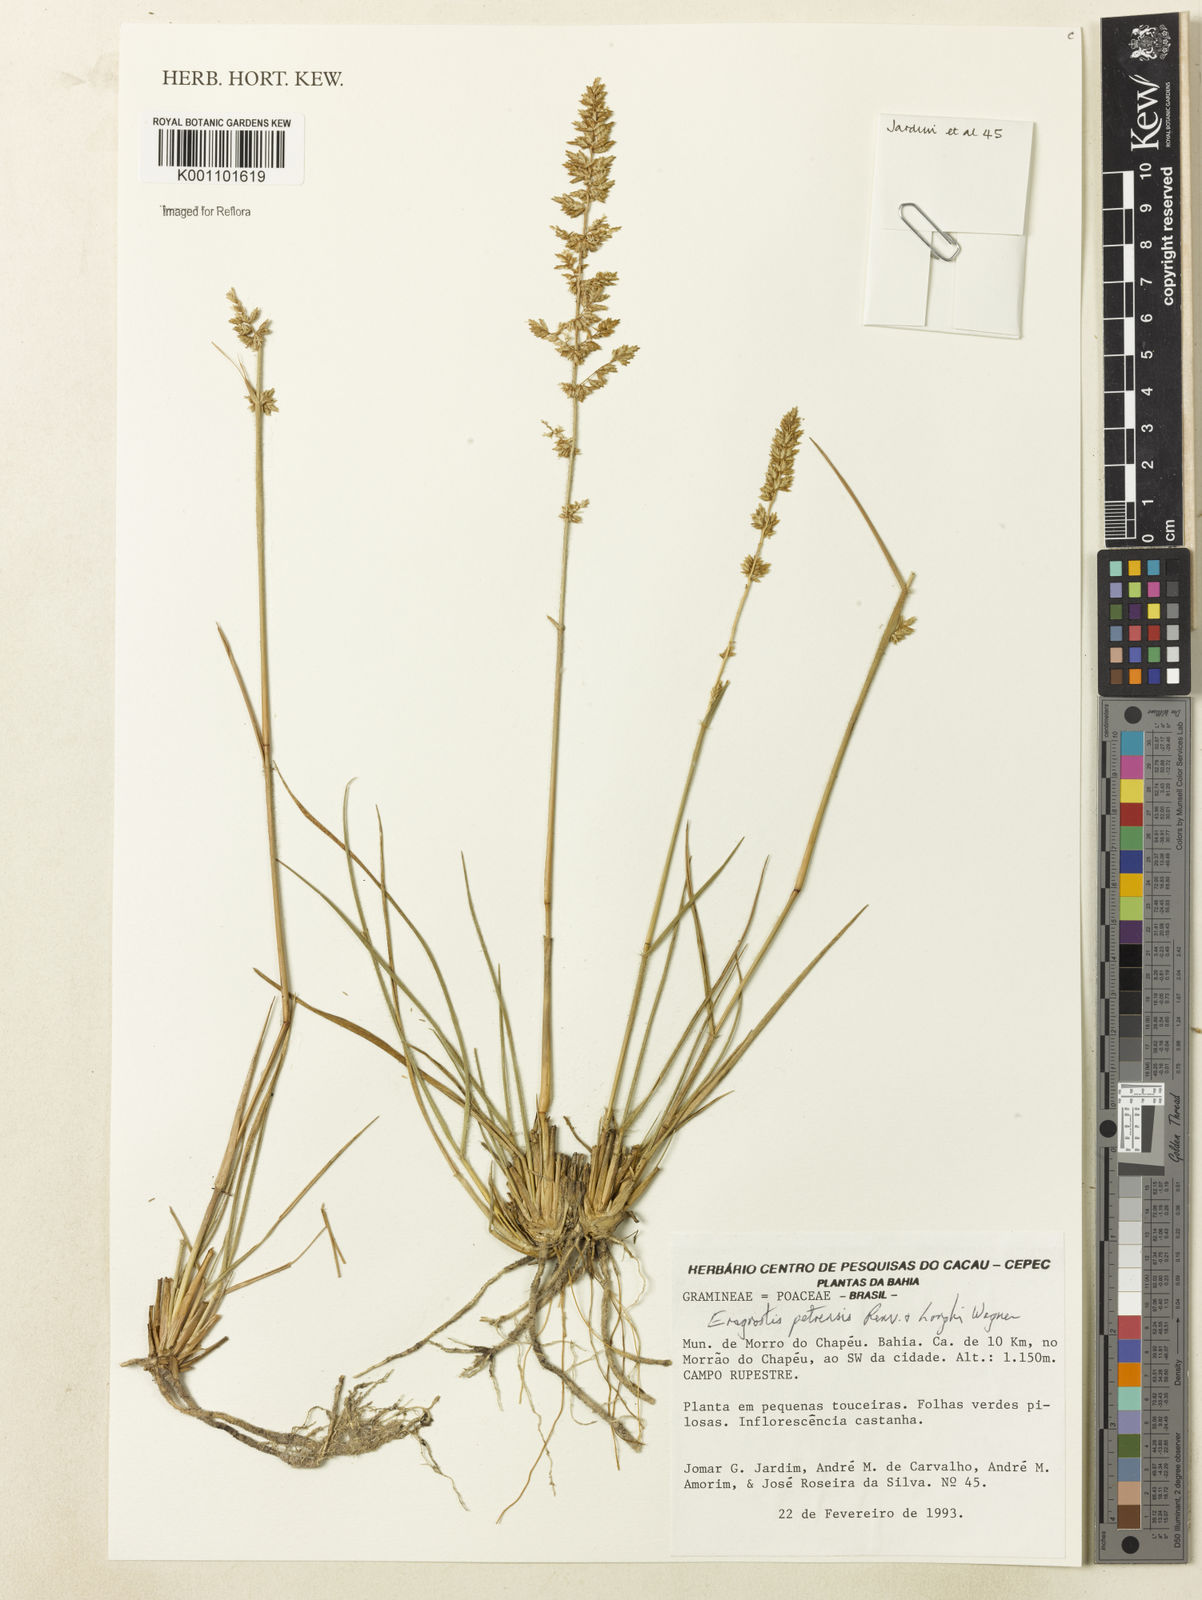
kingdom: Plantae
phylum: Tracheophyta
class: Liliopsida
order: Poales
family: Poaceae
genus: Eragrostis
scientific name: Eragrostis petrensis
